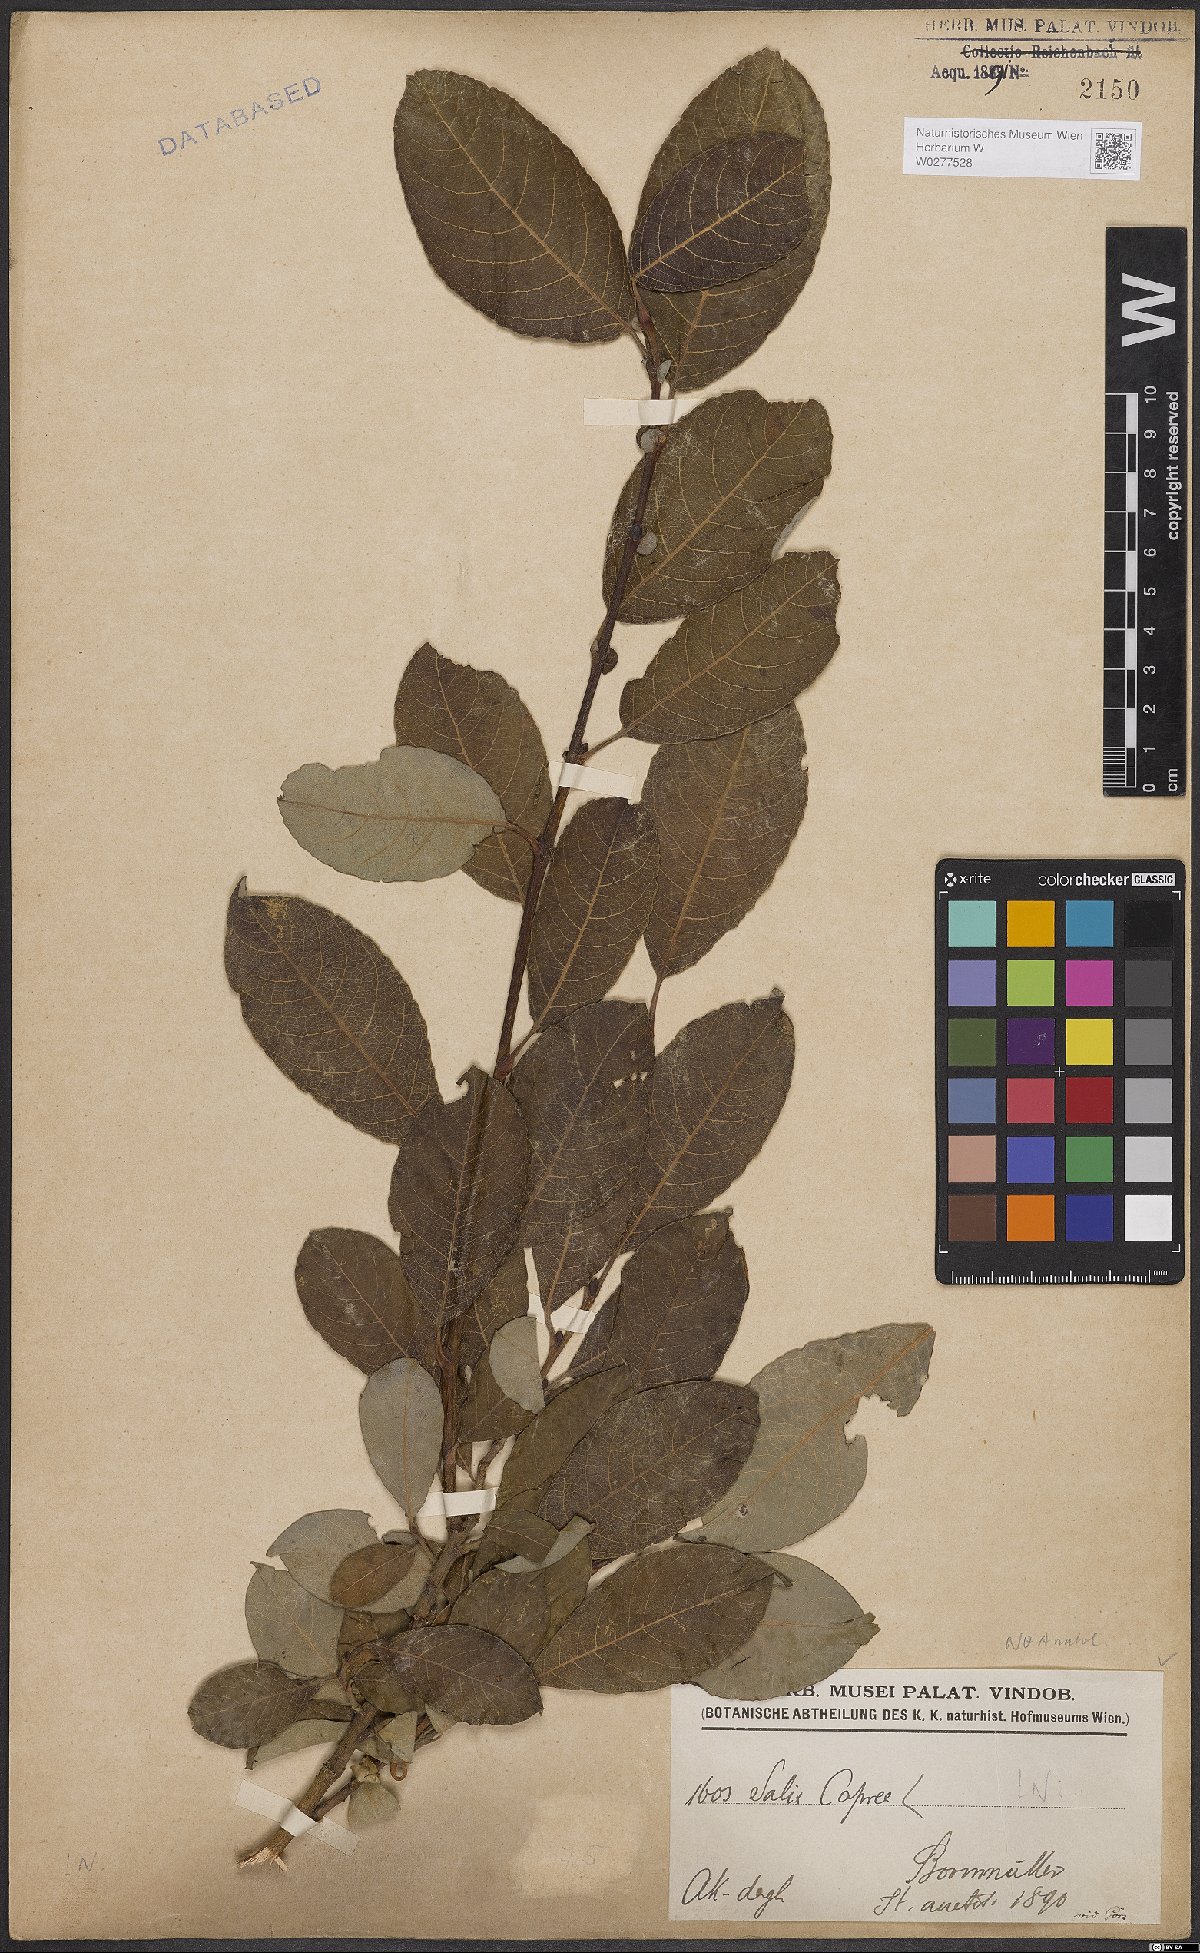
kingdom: Plantae
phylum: Tracheophyta
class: Magnoliopsida
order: Malpighiales
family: Salicaceae
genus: Salix
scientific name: Salix caprea
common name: Goat willow
